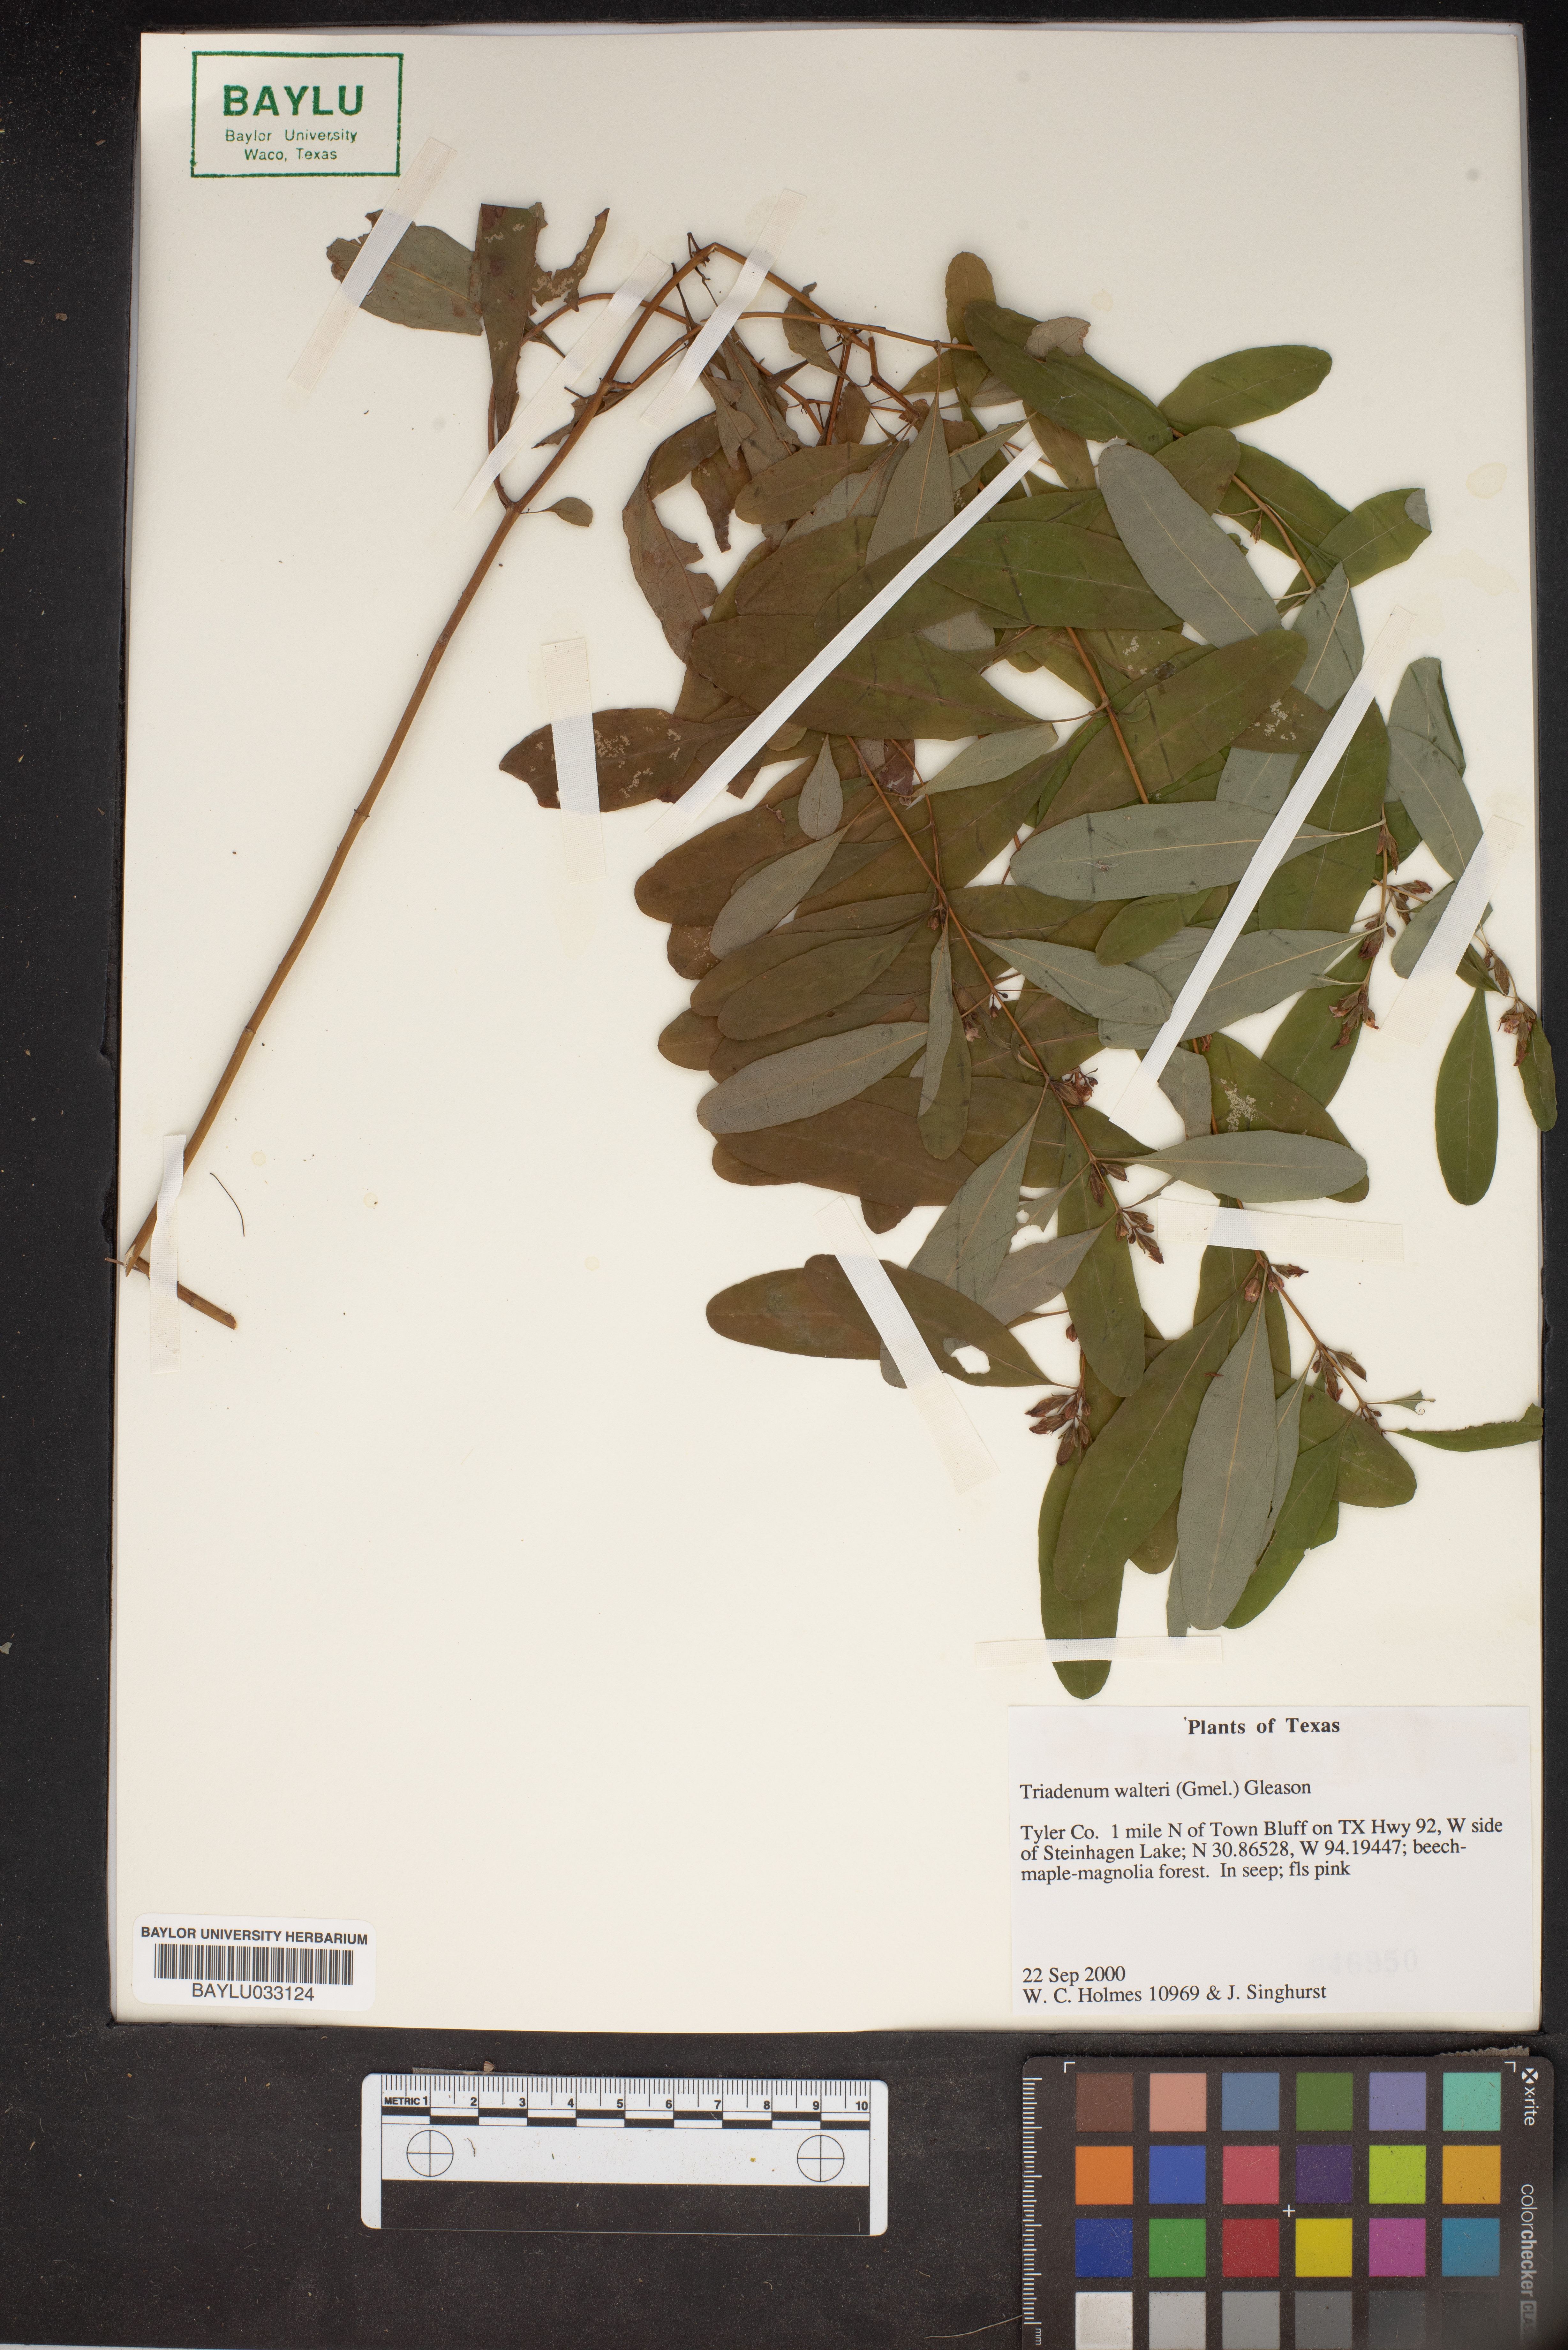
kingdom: Plantae
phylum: Tracheophyta
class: Magnoliopsida
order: Malpighiales
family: Hypericaceae
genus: Triadenum
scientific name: Triadenum walteri
